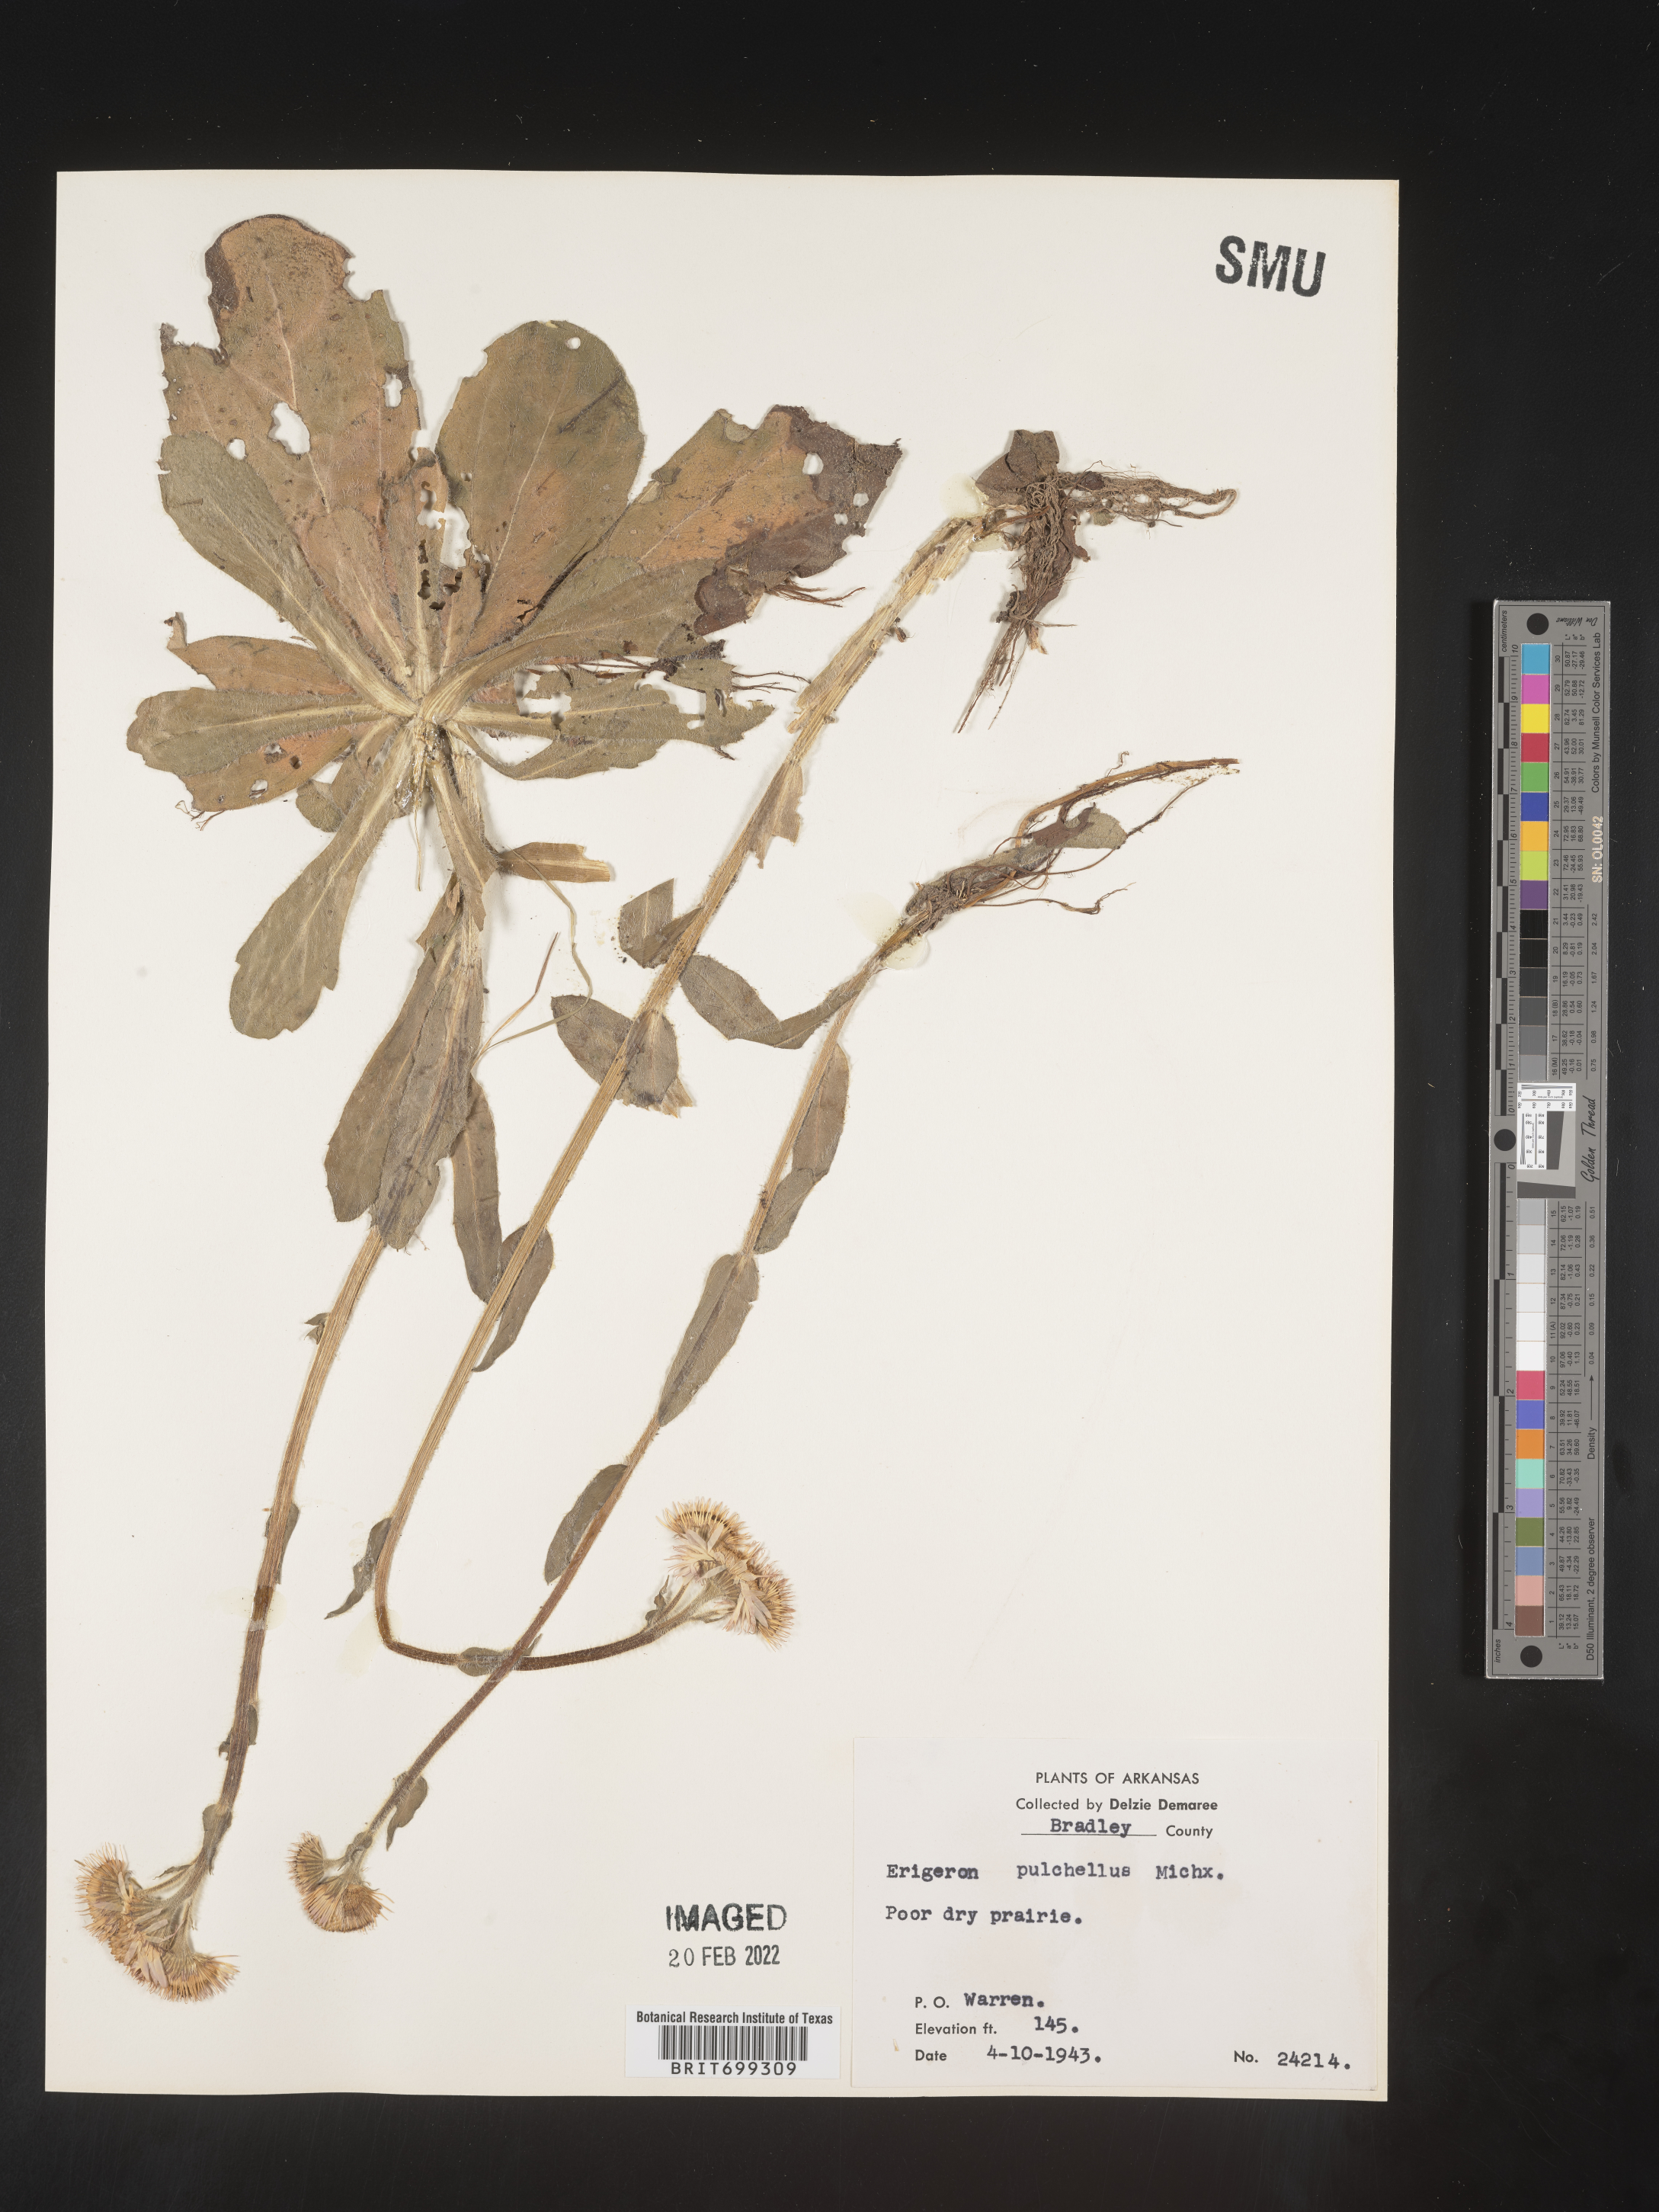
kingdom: Plantae
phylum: Tracheophyta
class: Magnoliopsida
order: Asterales
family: Asteraceae
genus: Erigeron
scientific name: Erigeron pulchellus
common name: Hairy fleabane
